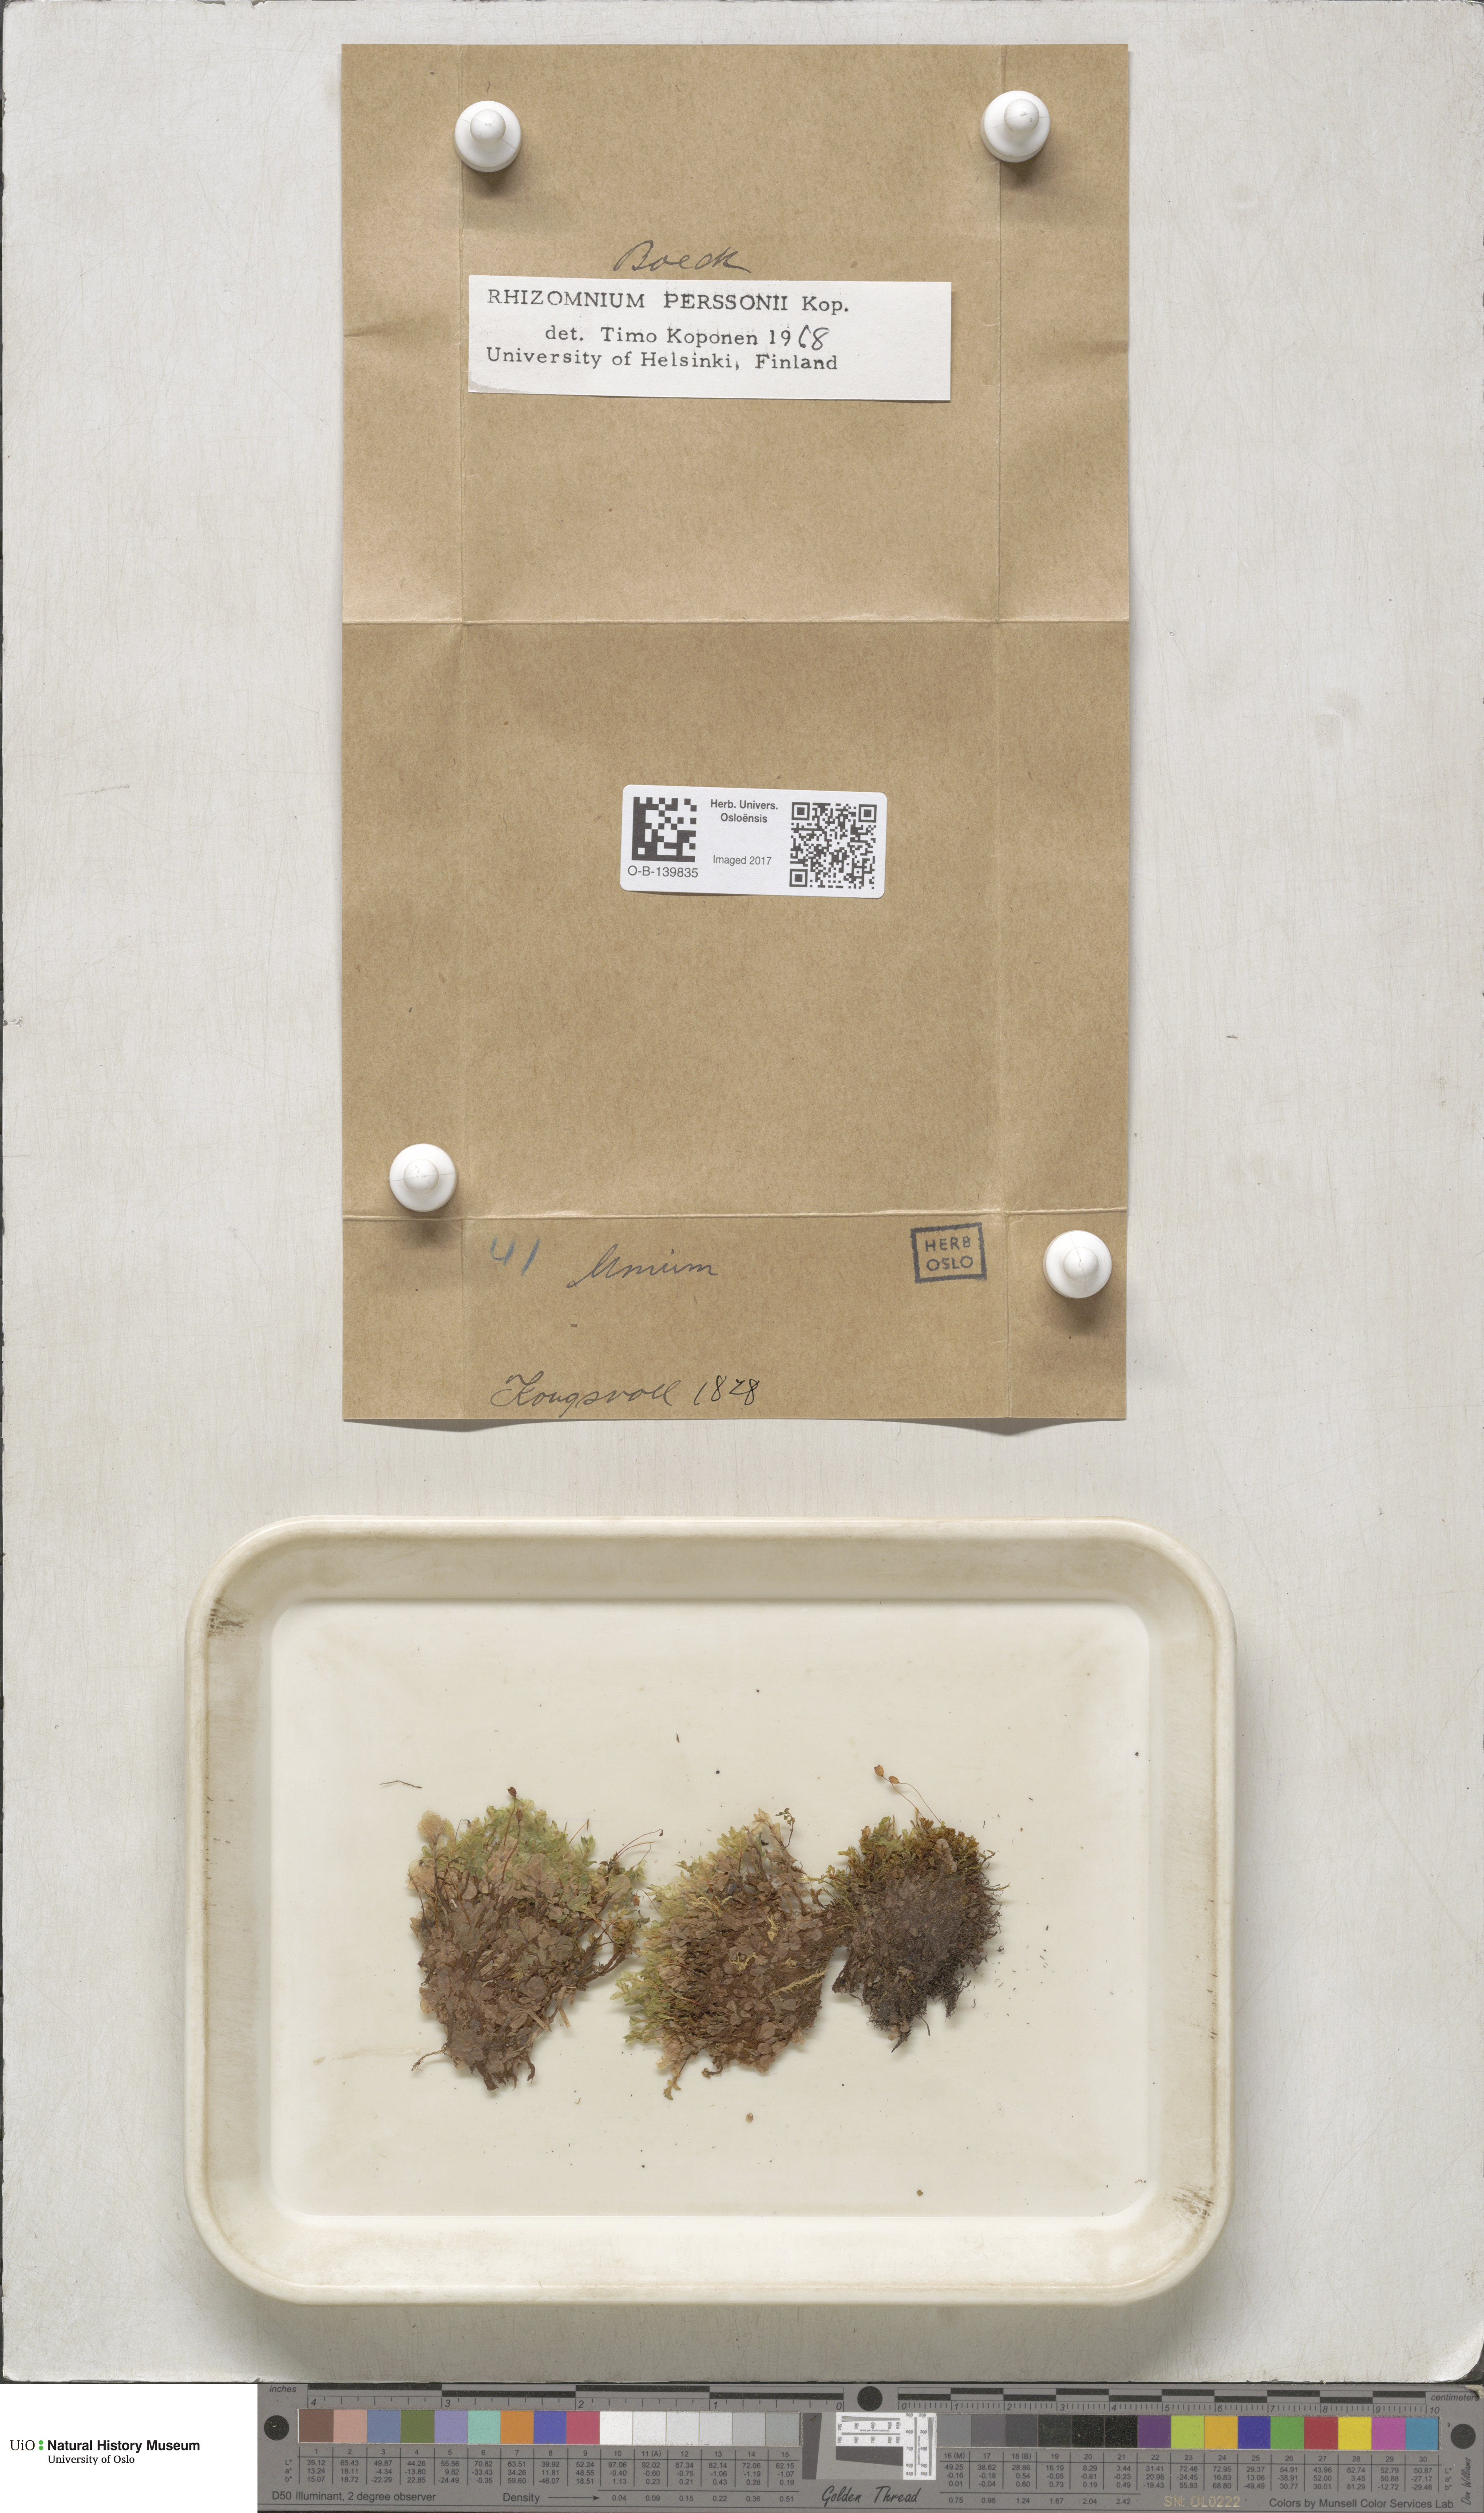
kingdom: Plantae
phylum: Bryophyta
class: Bryopsida
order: Bryales
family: Mniaceae
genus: Rhizomnium
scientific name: Rhizomnium magnifolium
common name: Large-leaved leafy moss
